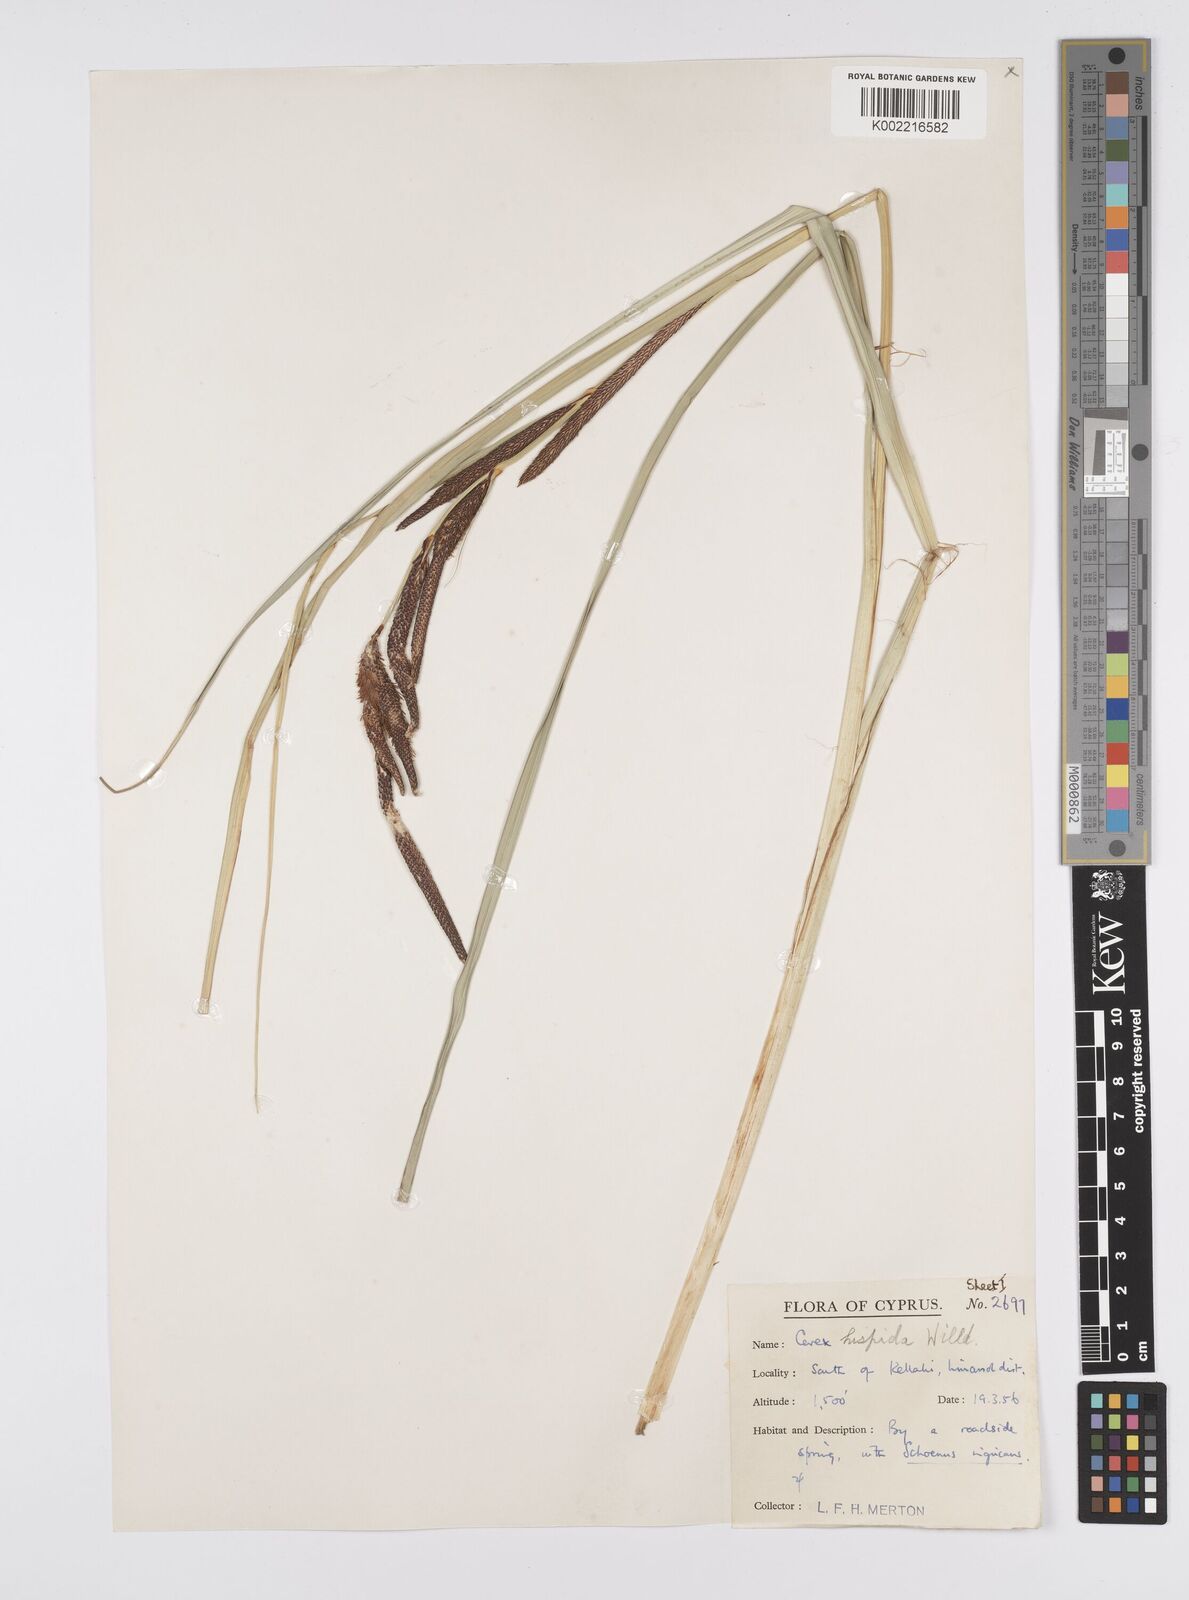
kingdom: Plantae
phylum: Tracheophyta
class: Liliopsida
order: Poales
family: Cyperaceae
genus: Carex
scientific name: Carex hispida
